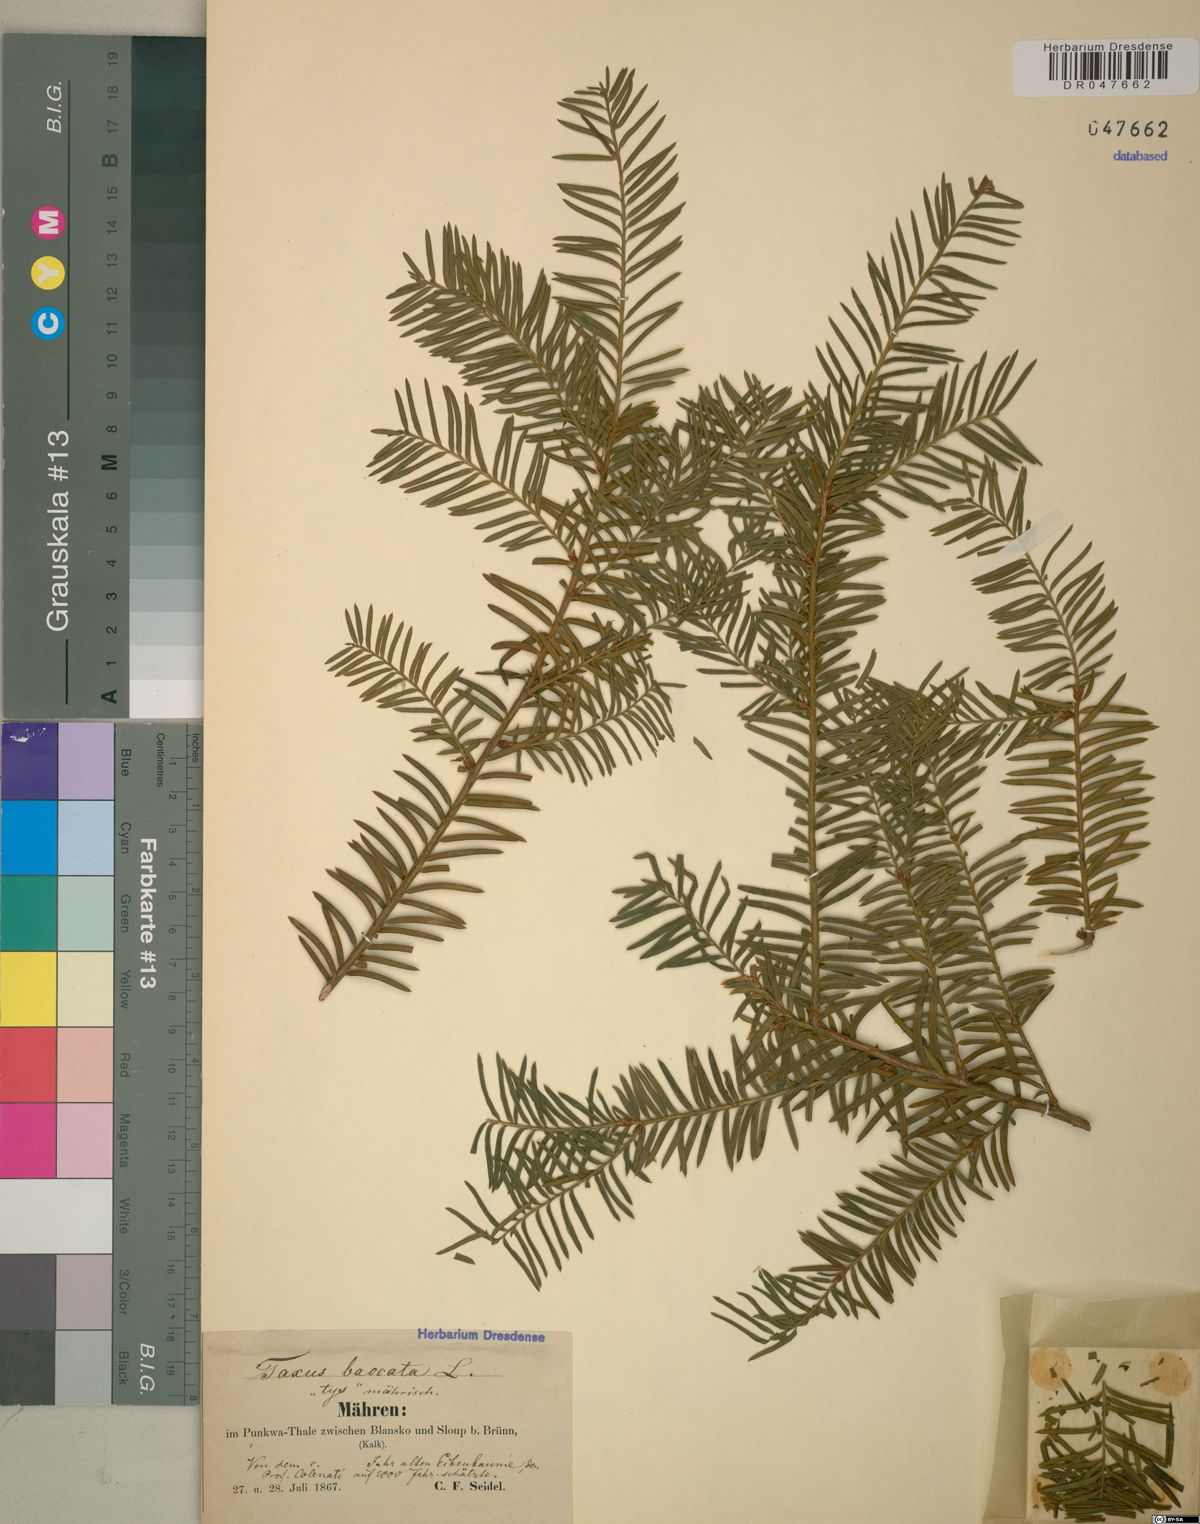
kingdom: Plantae
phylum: Tracheophyta
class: Pinopsida
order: Pinales
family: Taxaceae
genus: Taxus
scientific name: Taxus baccata
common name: Yew
